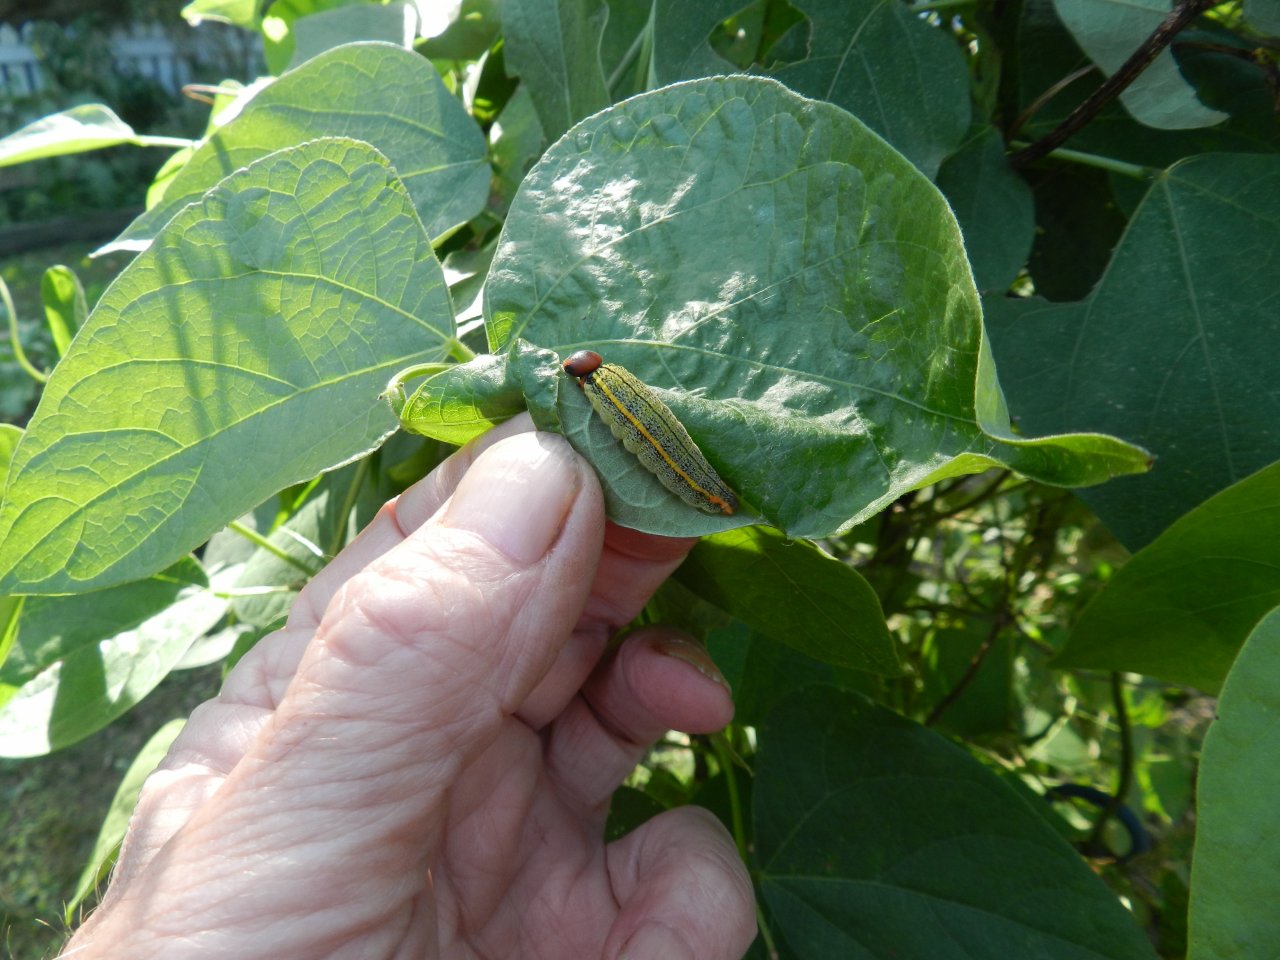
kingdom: Animalia
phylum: Arthropoda
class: Insecta
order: Lepidoptera
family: Hesperiidae
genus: Urbanus
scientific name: Urbanus proteus
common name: Long-tailed Skipper
